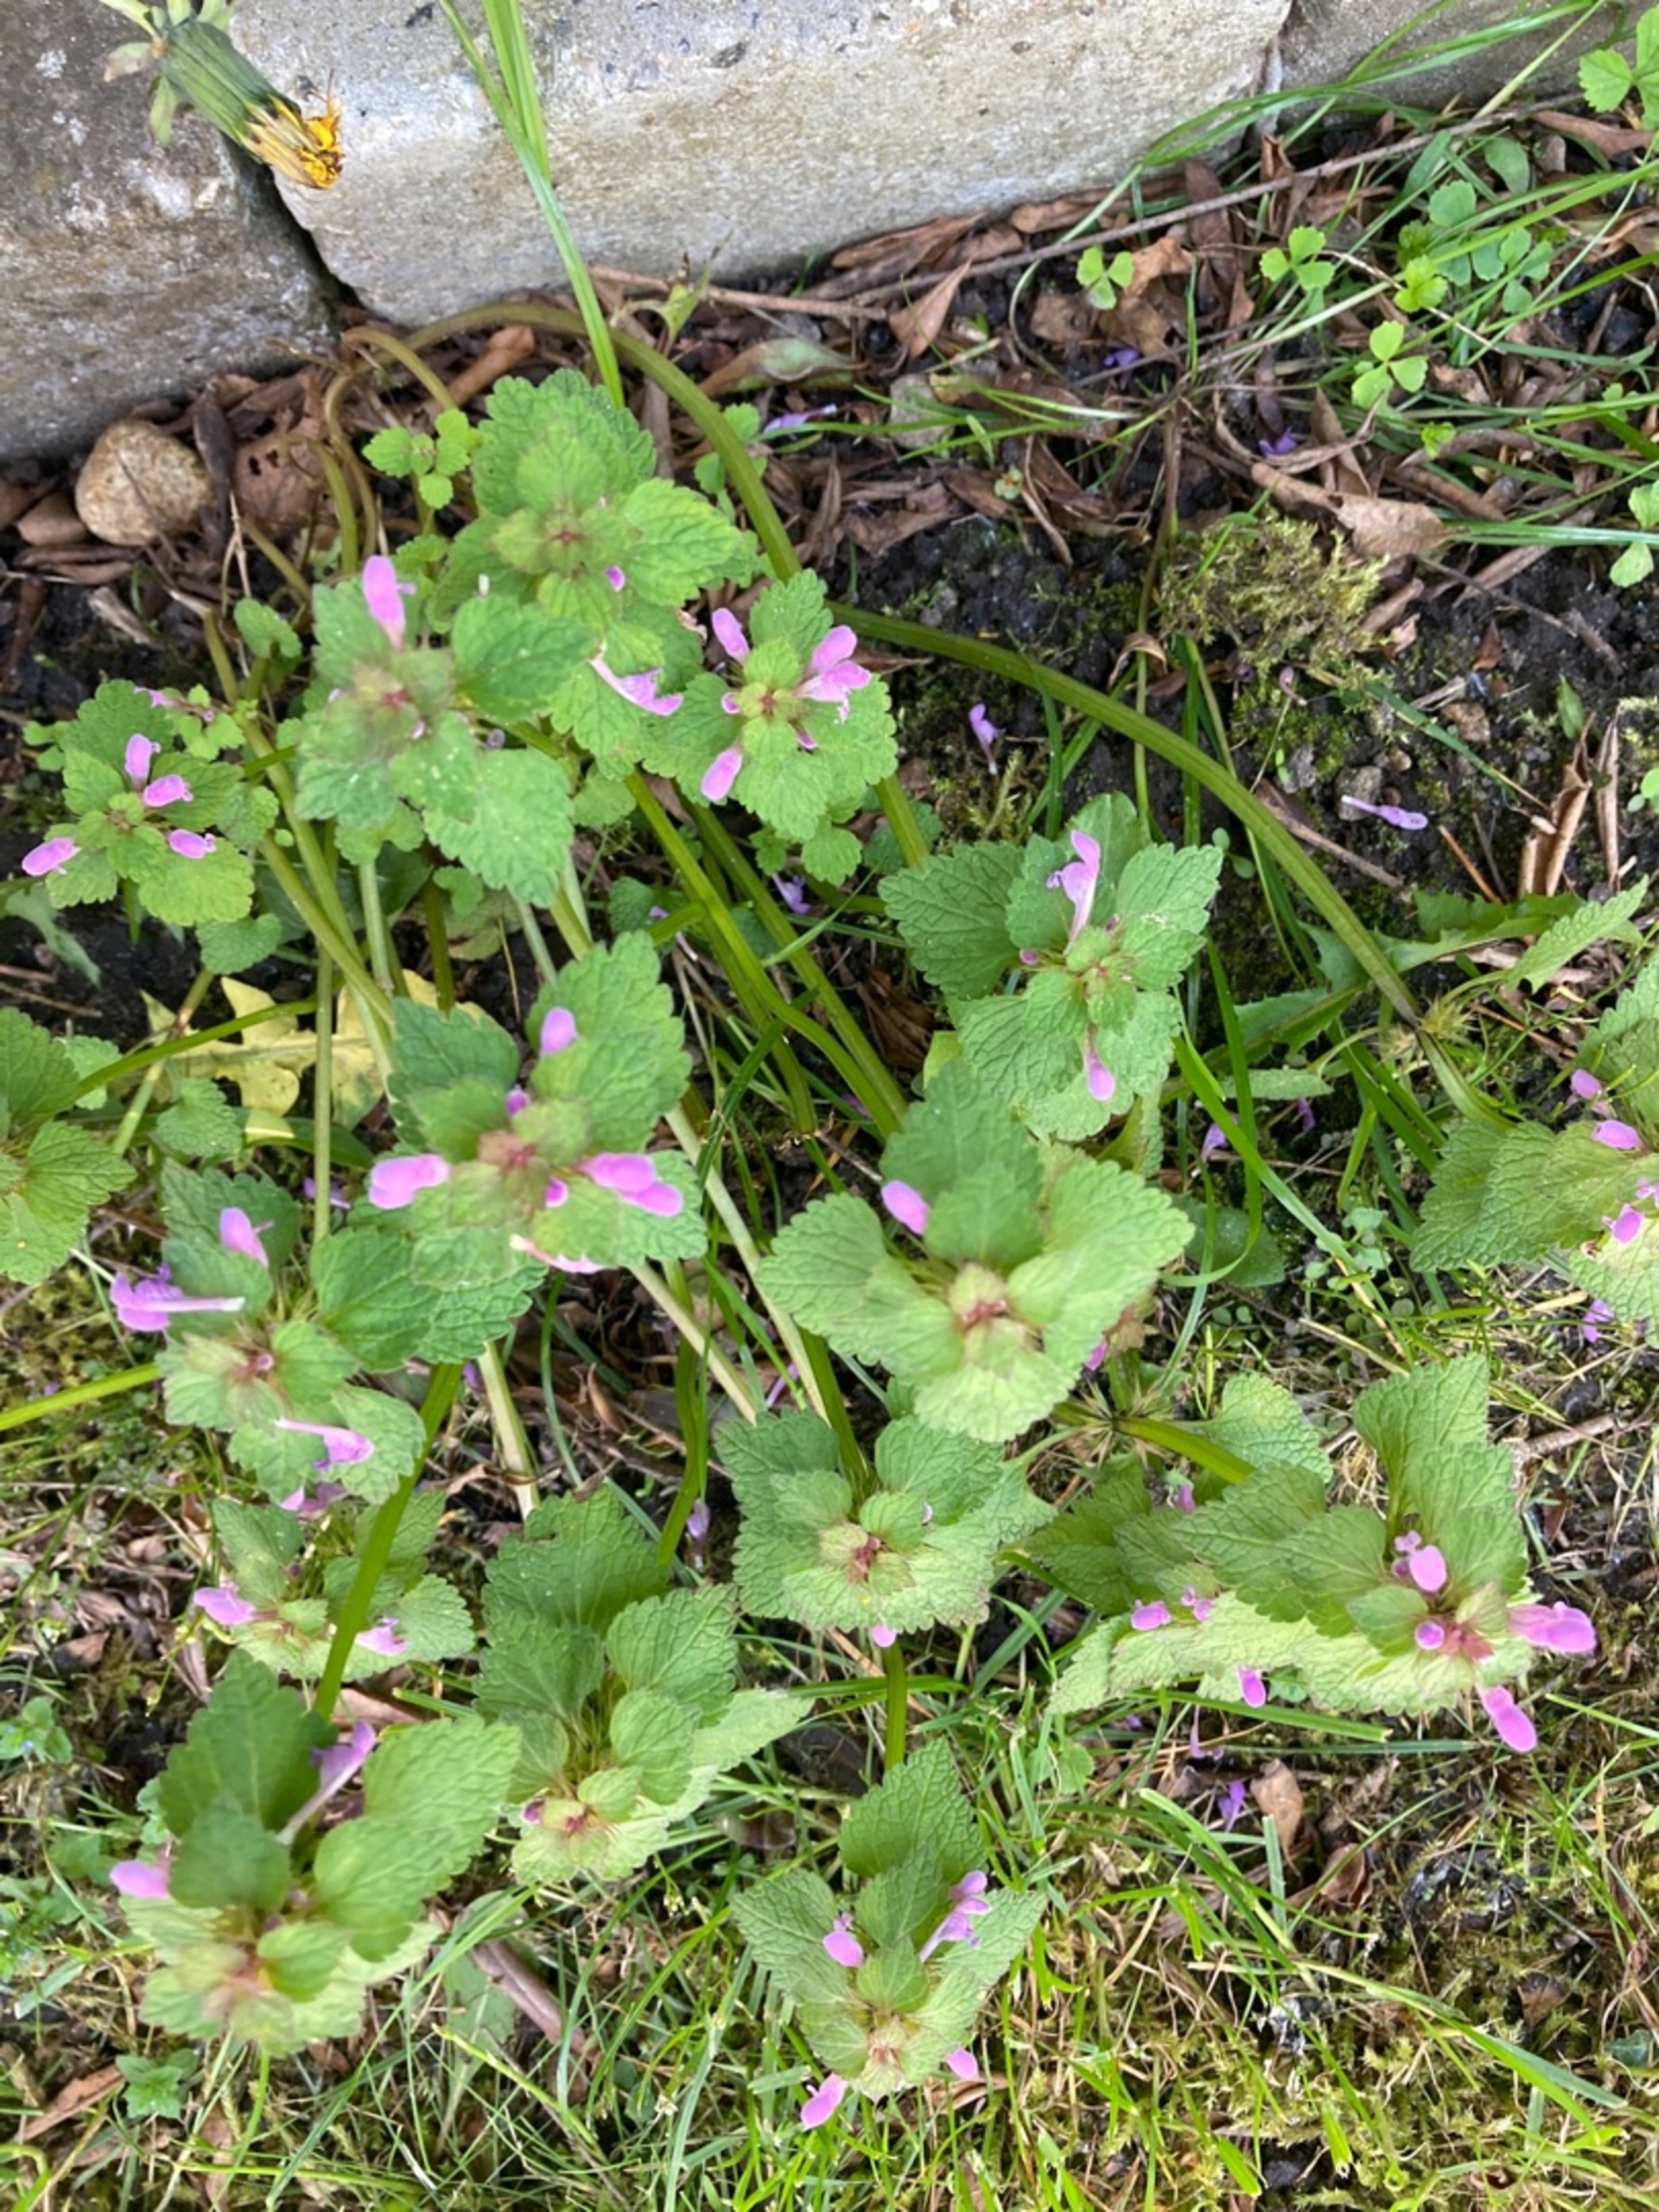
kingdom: Plantae
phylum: Tracheophyta
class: Magnoliopsida
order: Lamiales
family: Lamiaceae
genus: Lamium
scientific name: Lamium purpureum
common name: Rød tvetand
